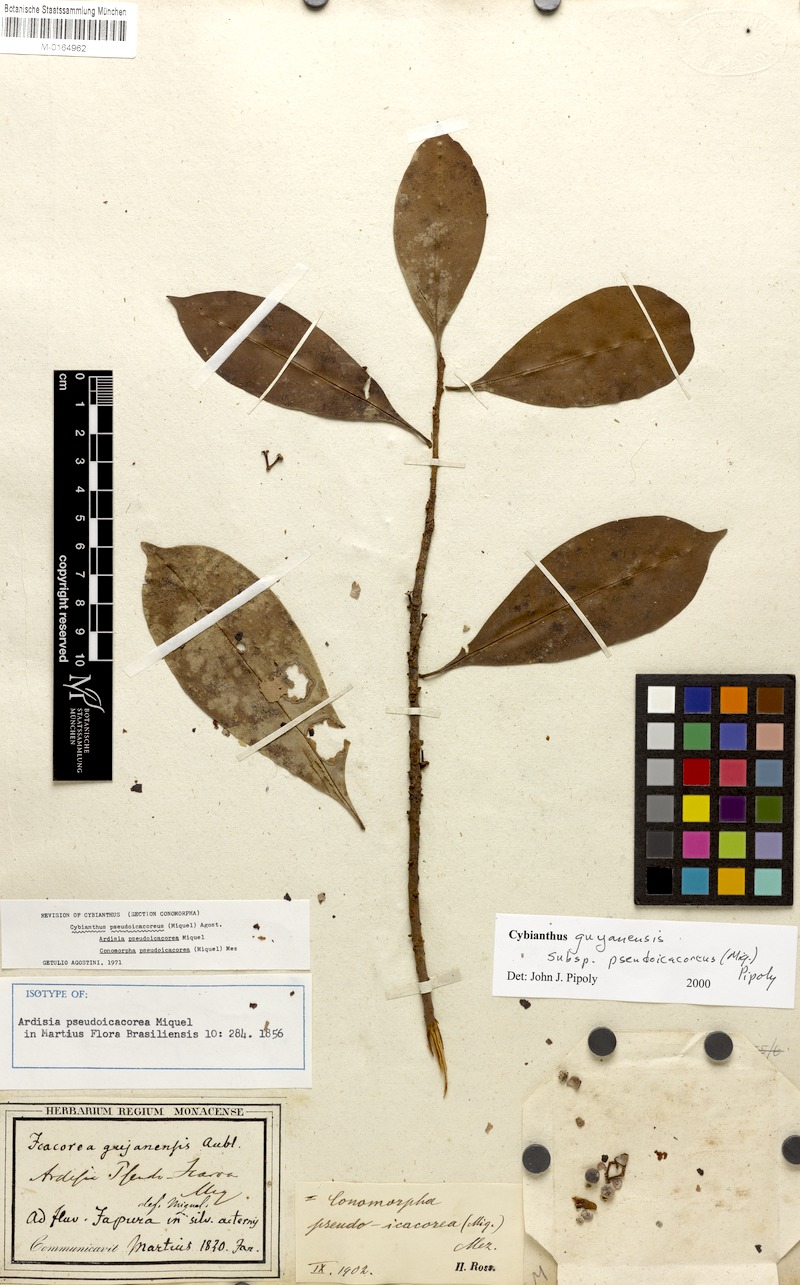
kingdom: Plantae
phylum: Tracheophyta
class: Magnoliopsida
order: Ericales
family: Primulaceae
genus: Cybianthus
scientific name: Cybianthus guyanensis
